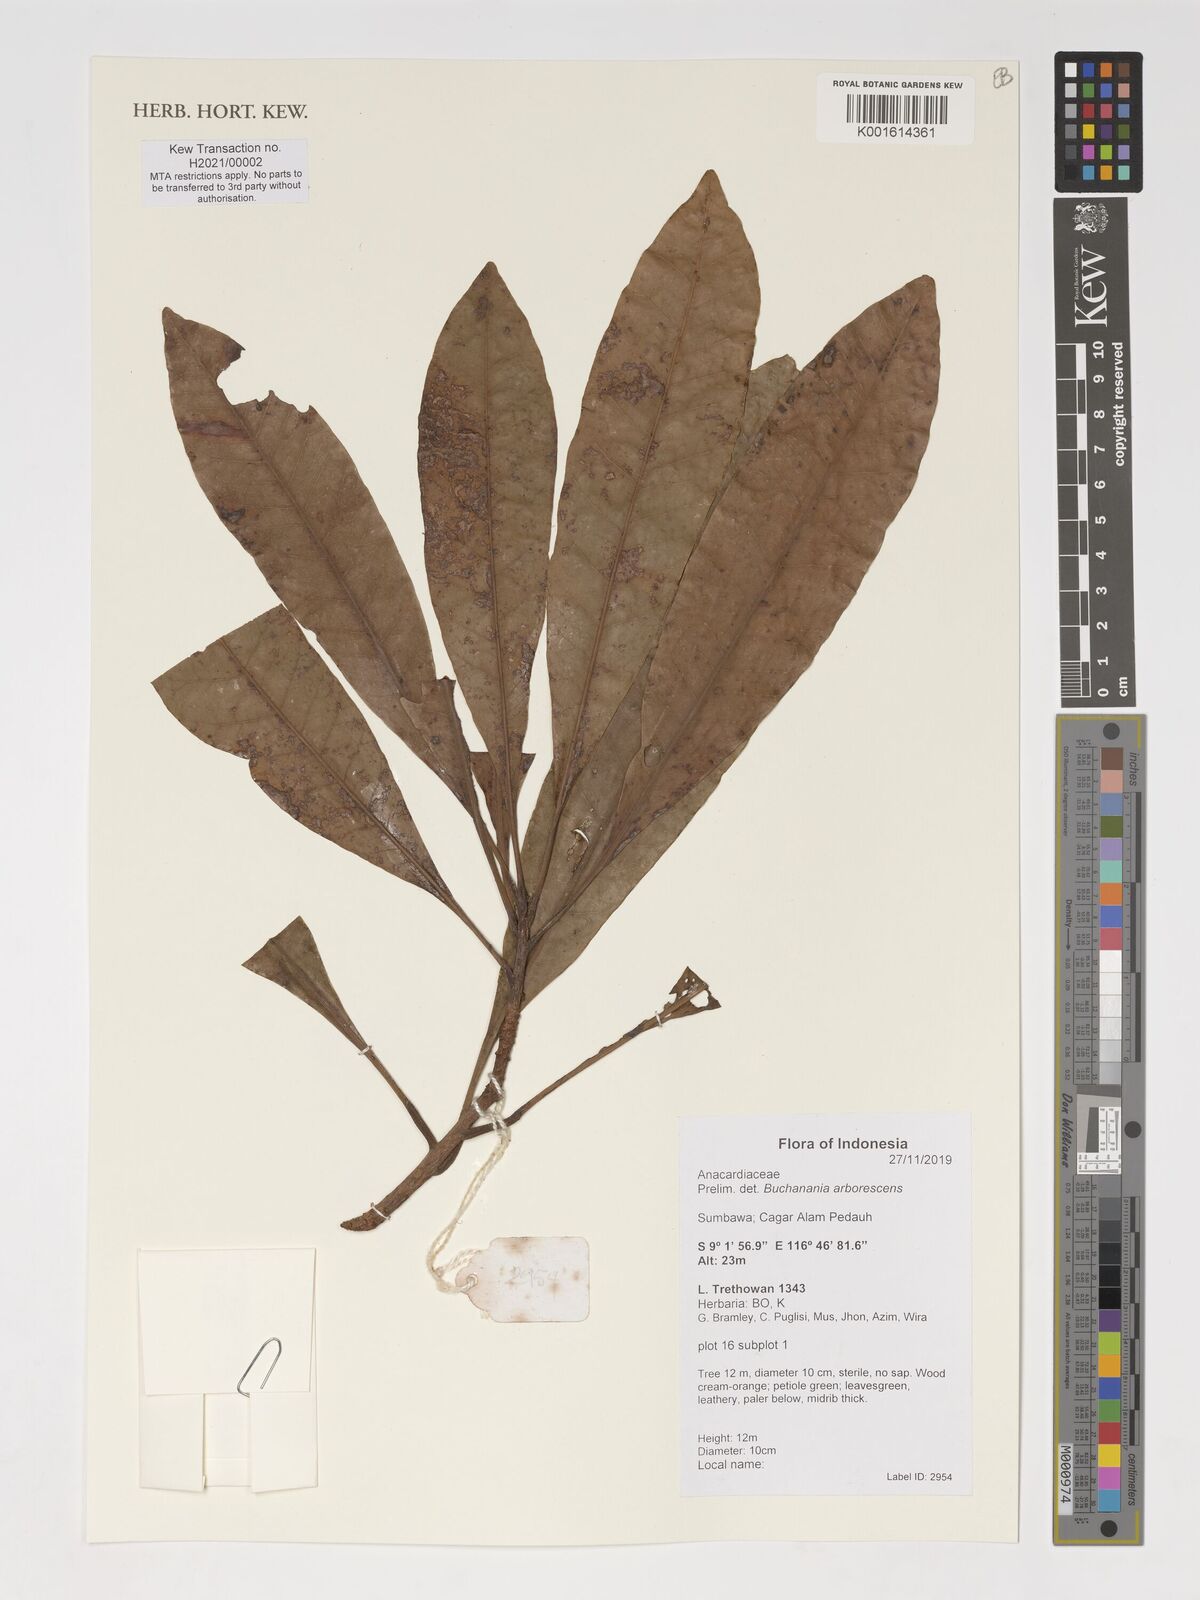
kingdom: Plantae
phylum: Tracheophyta
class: Magnoliopsida
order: Sapindales
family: Anacardiaceae
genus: Buchanania
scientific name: Buchanania arborescens
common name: Sparrow’s mango
